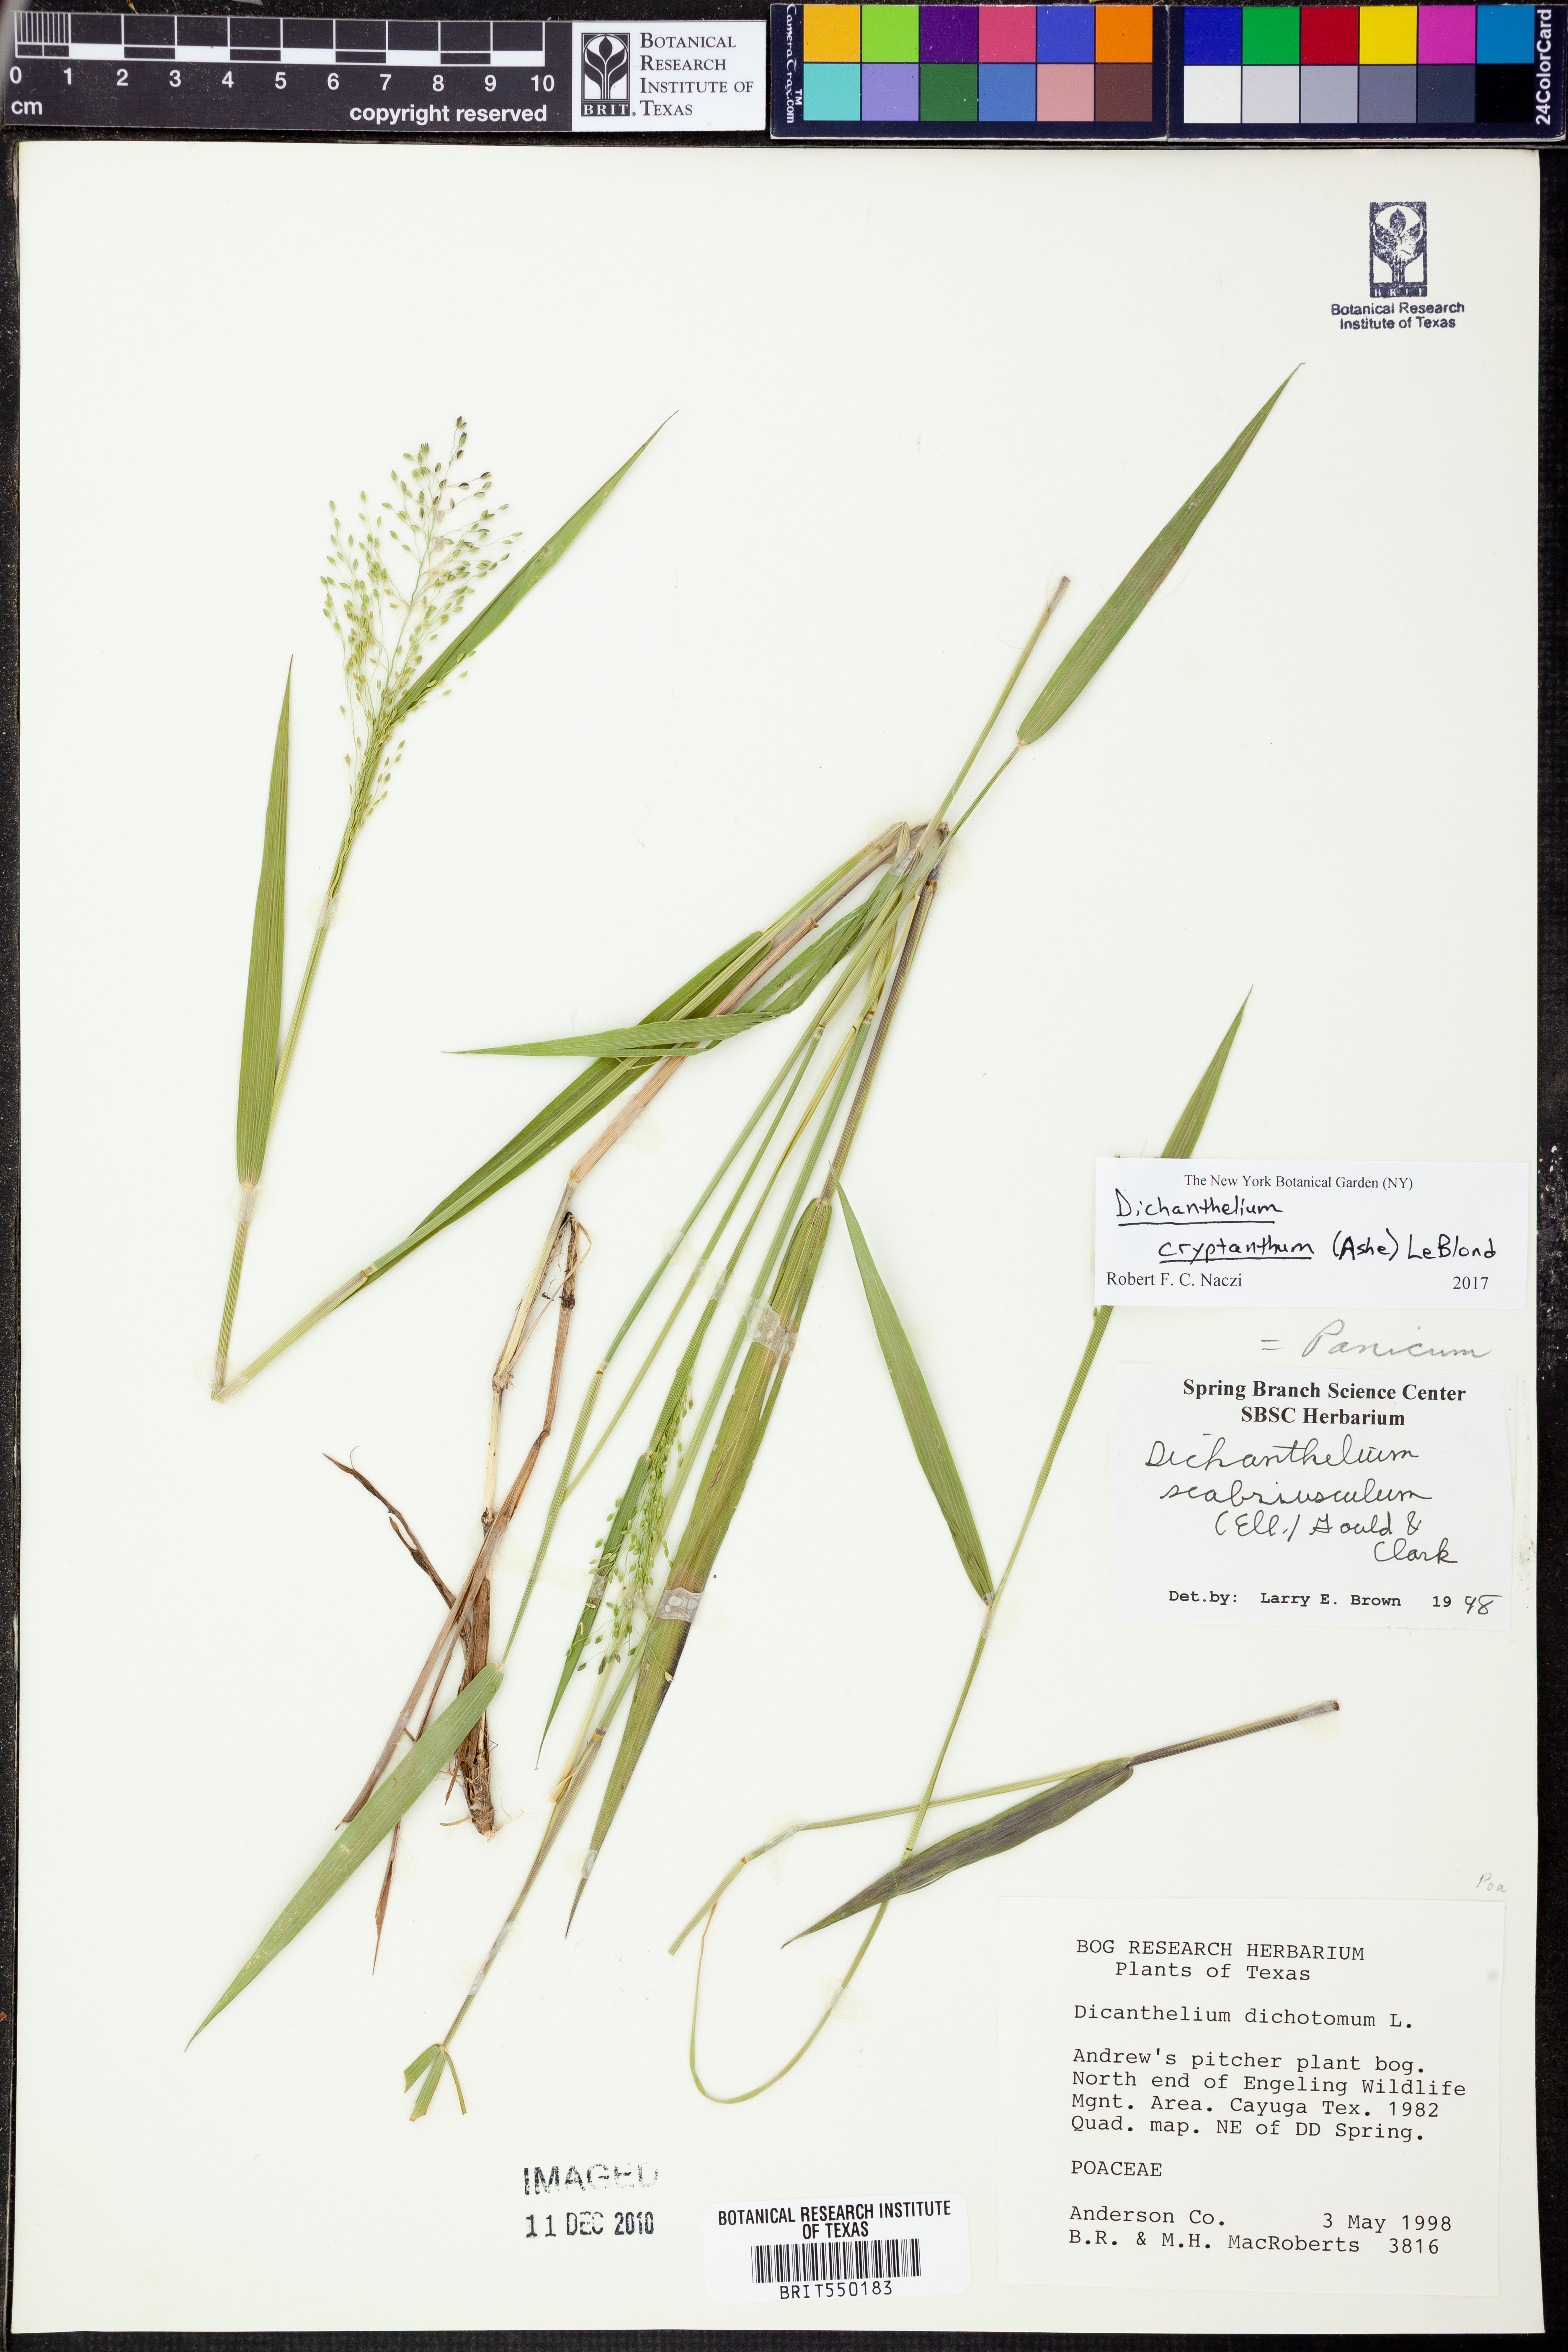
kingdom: Plantae
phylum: Tracheophyta
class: Liliopsida
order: Poales
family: Poaceae
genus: Dichanthelium
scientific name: Dichanthelium cryptanthum
